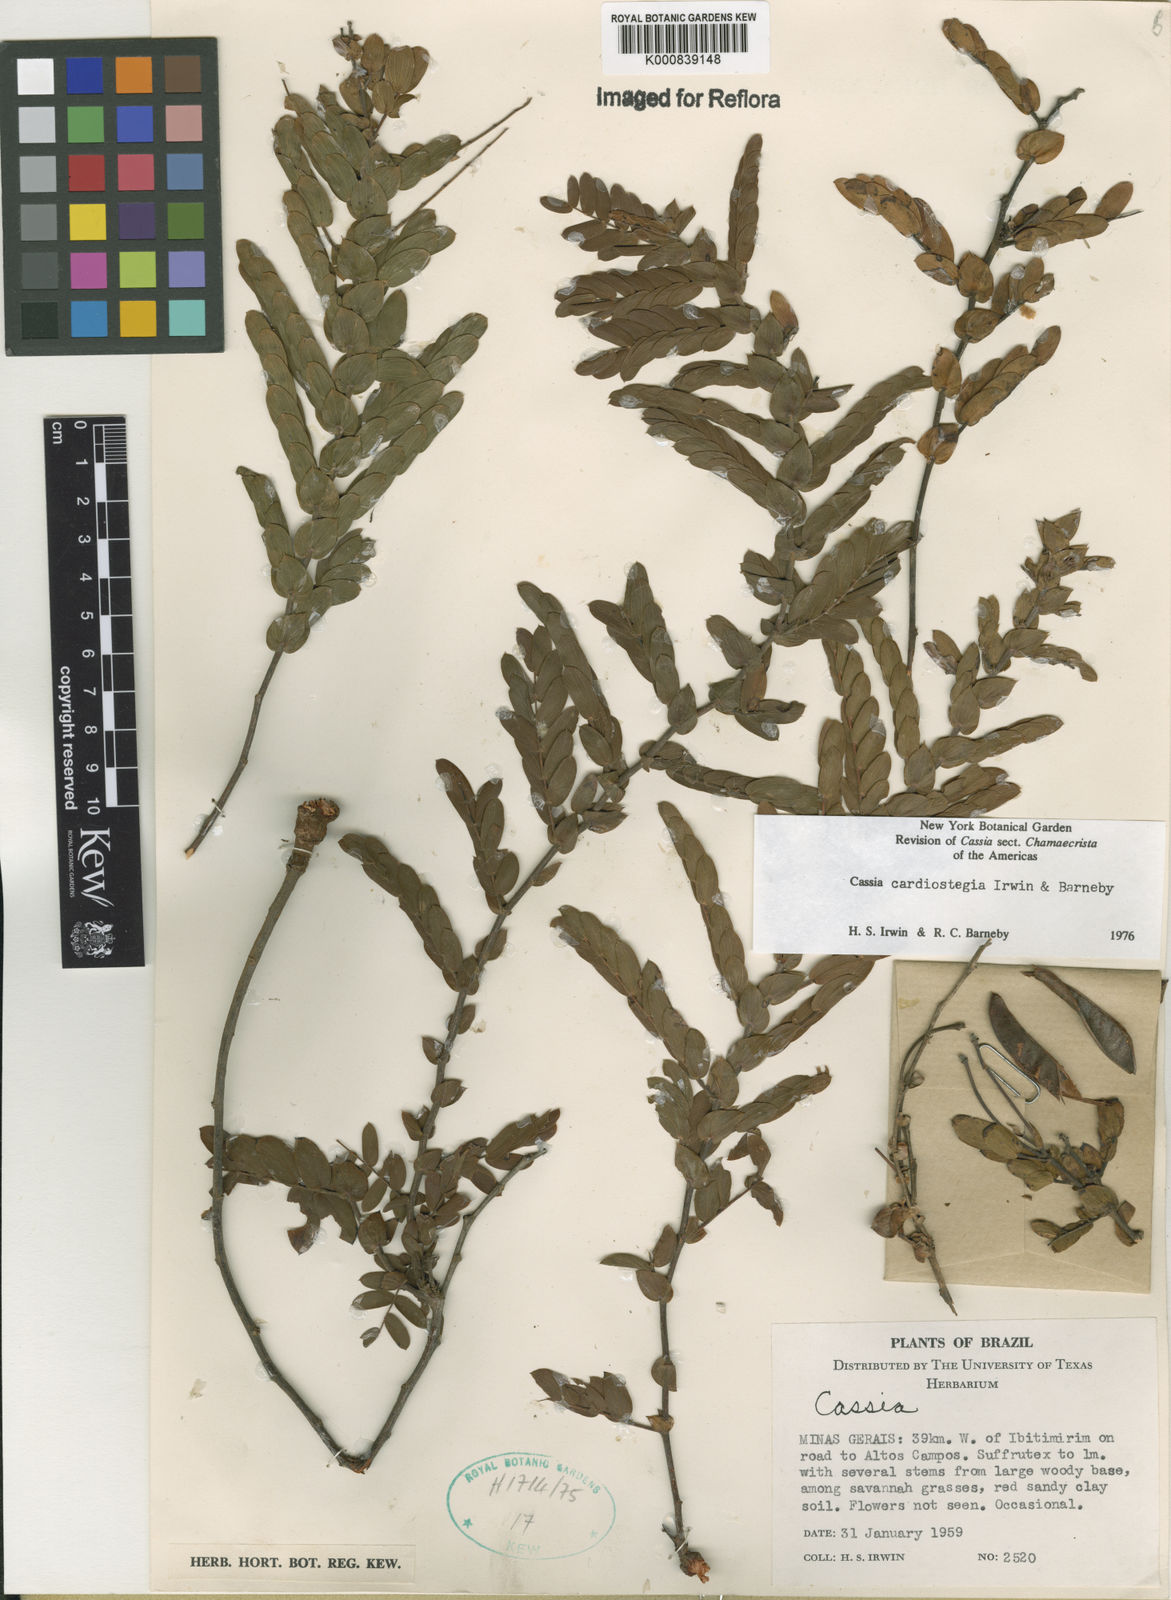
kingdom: Plantae
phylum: Tracheophyta
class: Magnoliopsida
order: Fabales
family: Fabaceae
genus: Chamaecrista
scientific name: Chamaecrista cardiostegia
